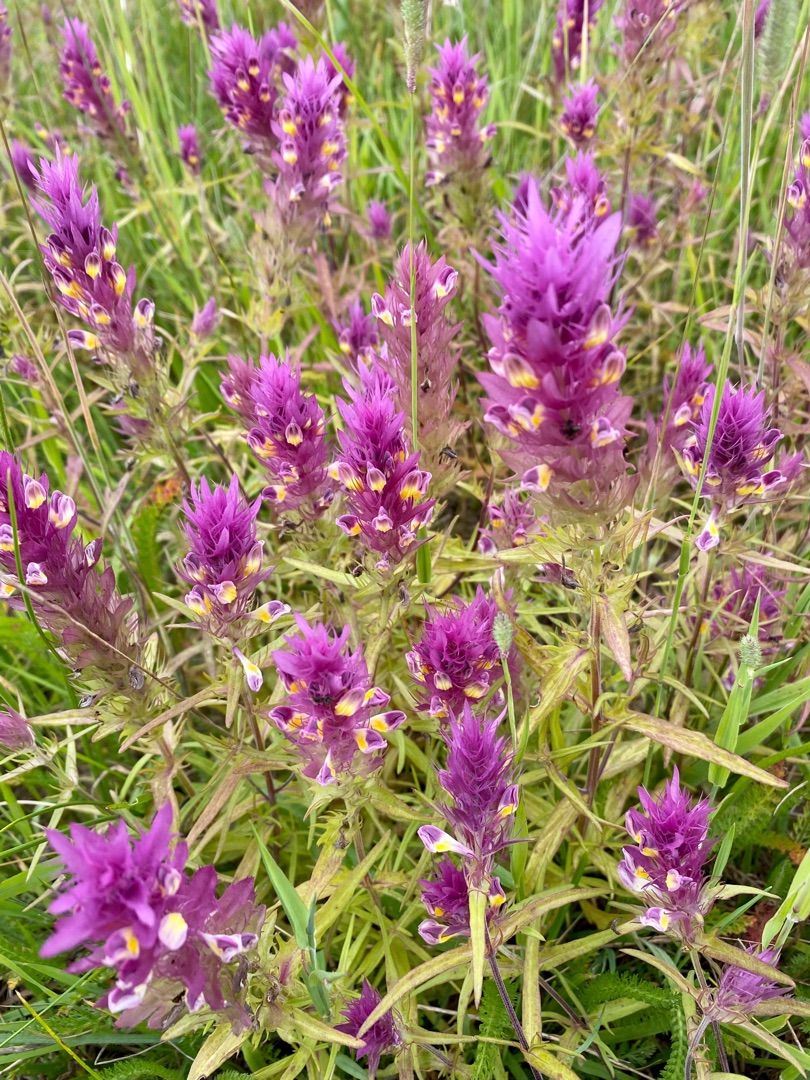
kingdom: Plantae
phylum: Tracheophyta
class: Magnoliopsida
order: Lamiales
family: Orobanchaceae
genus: Melampyrum
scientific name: Melampyrum arvense
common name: Ager-kohvede
